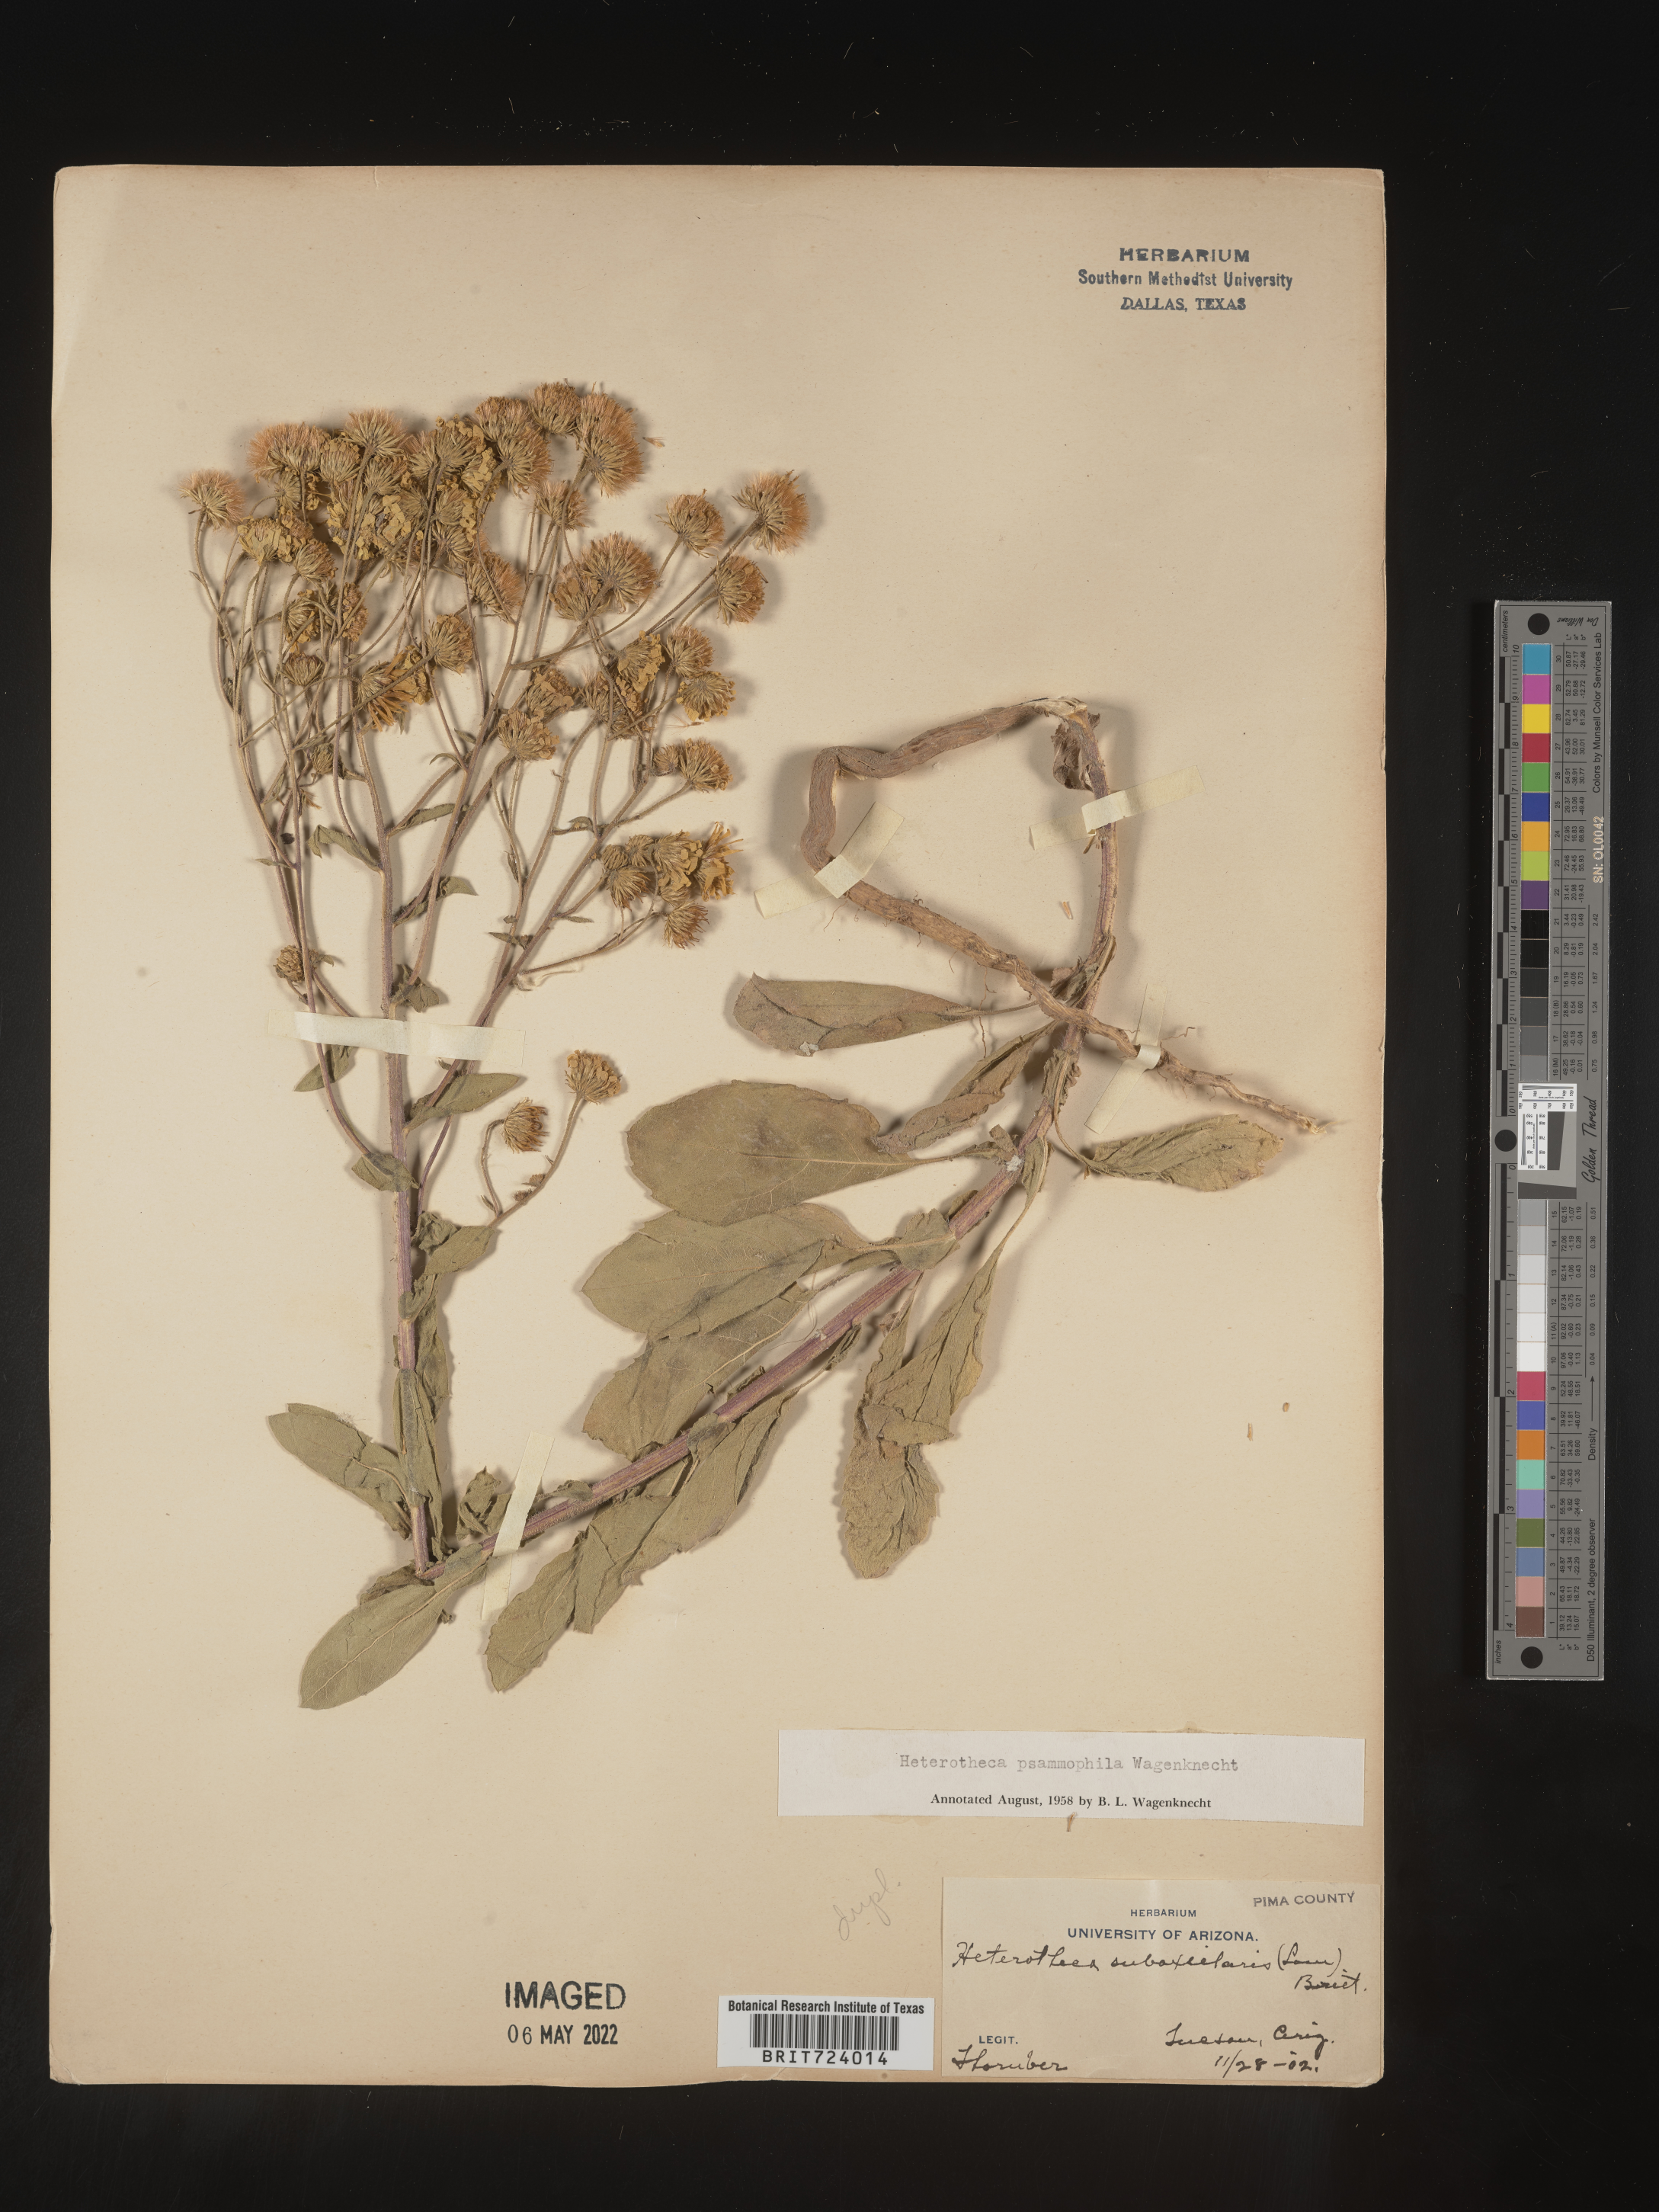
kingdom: Plantae
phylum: Tracheophyta
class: Magnoliopsida
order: Asterales
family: Asteraceae
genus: Heterotheca
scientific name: Heterotheca subaxillaris
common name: Camphorweed
